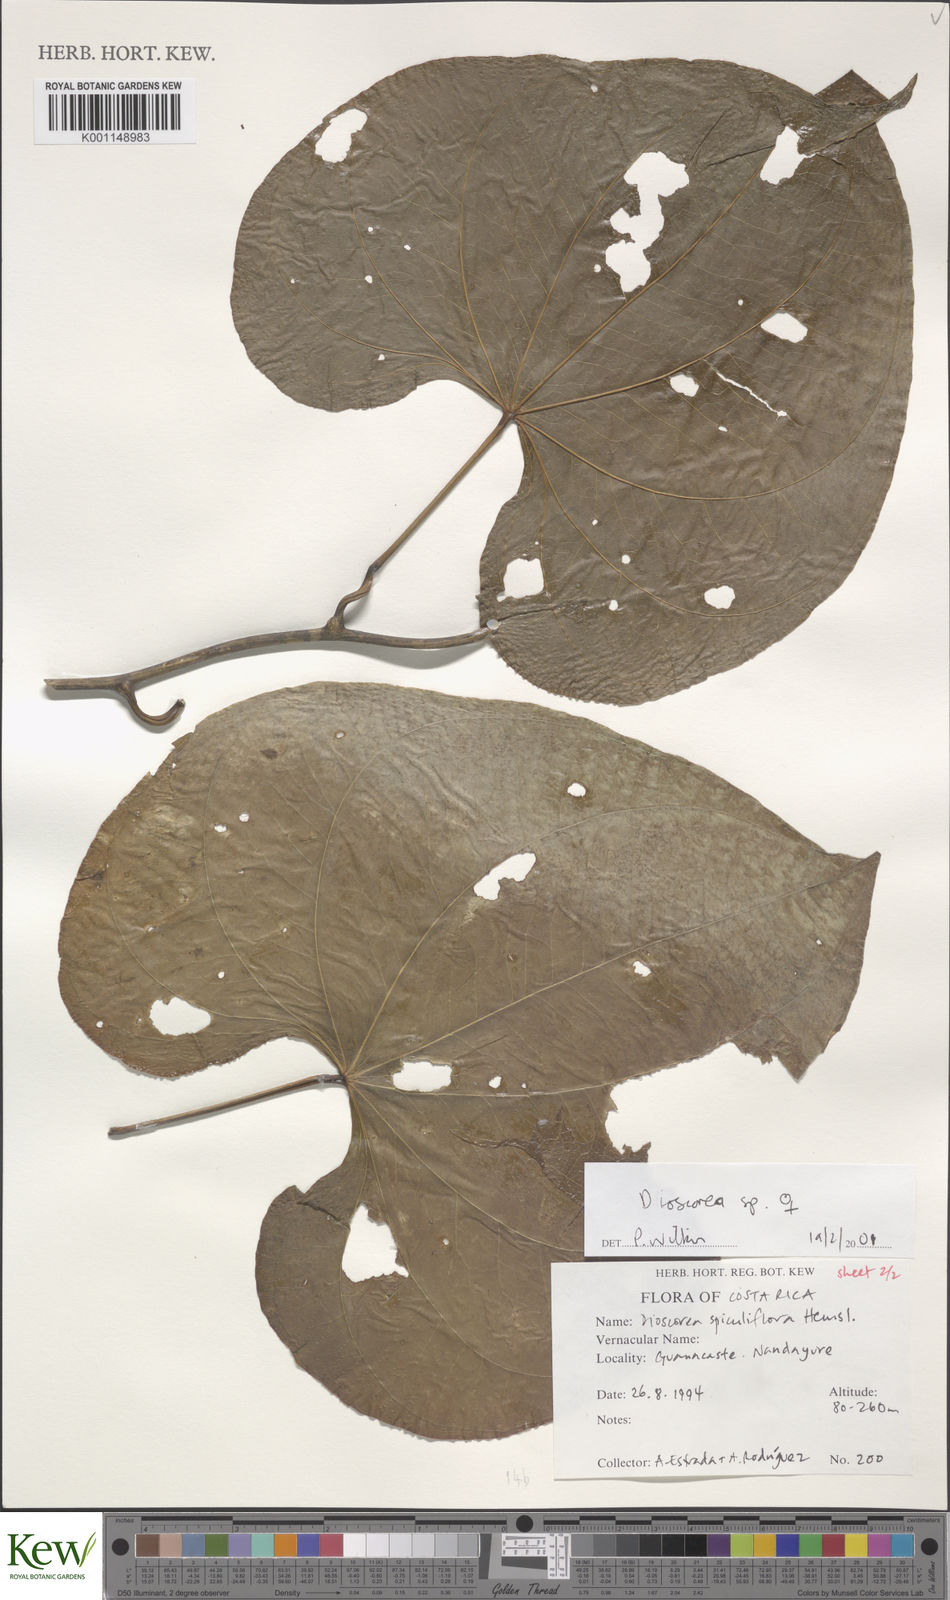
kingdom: Plantae
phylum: Tracheophyta
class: Liliopsida
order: Dioscoreales
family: Dioscoreaceae
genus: Dioscorea
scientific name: Dioscorea spiculiflora
